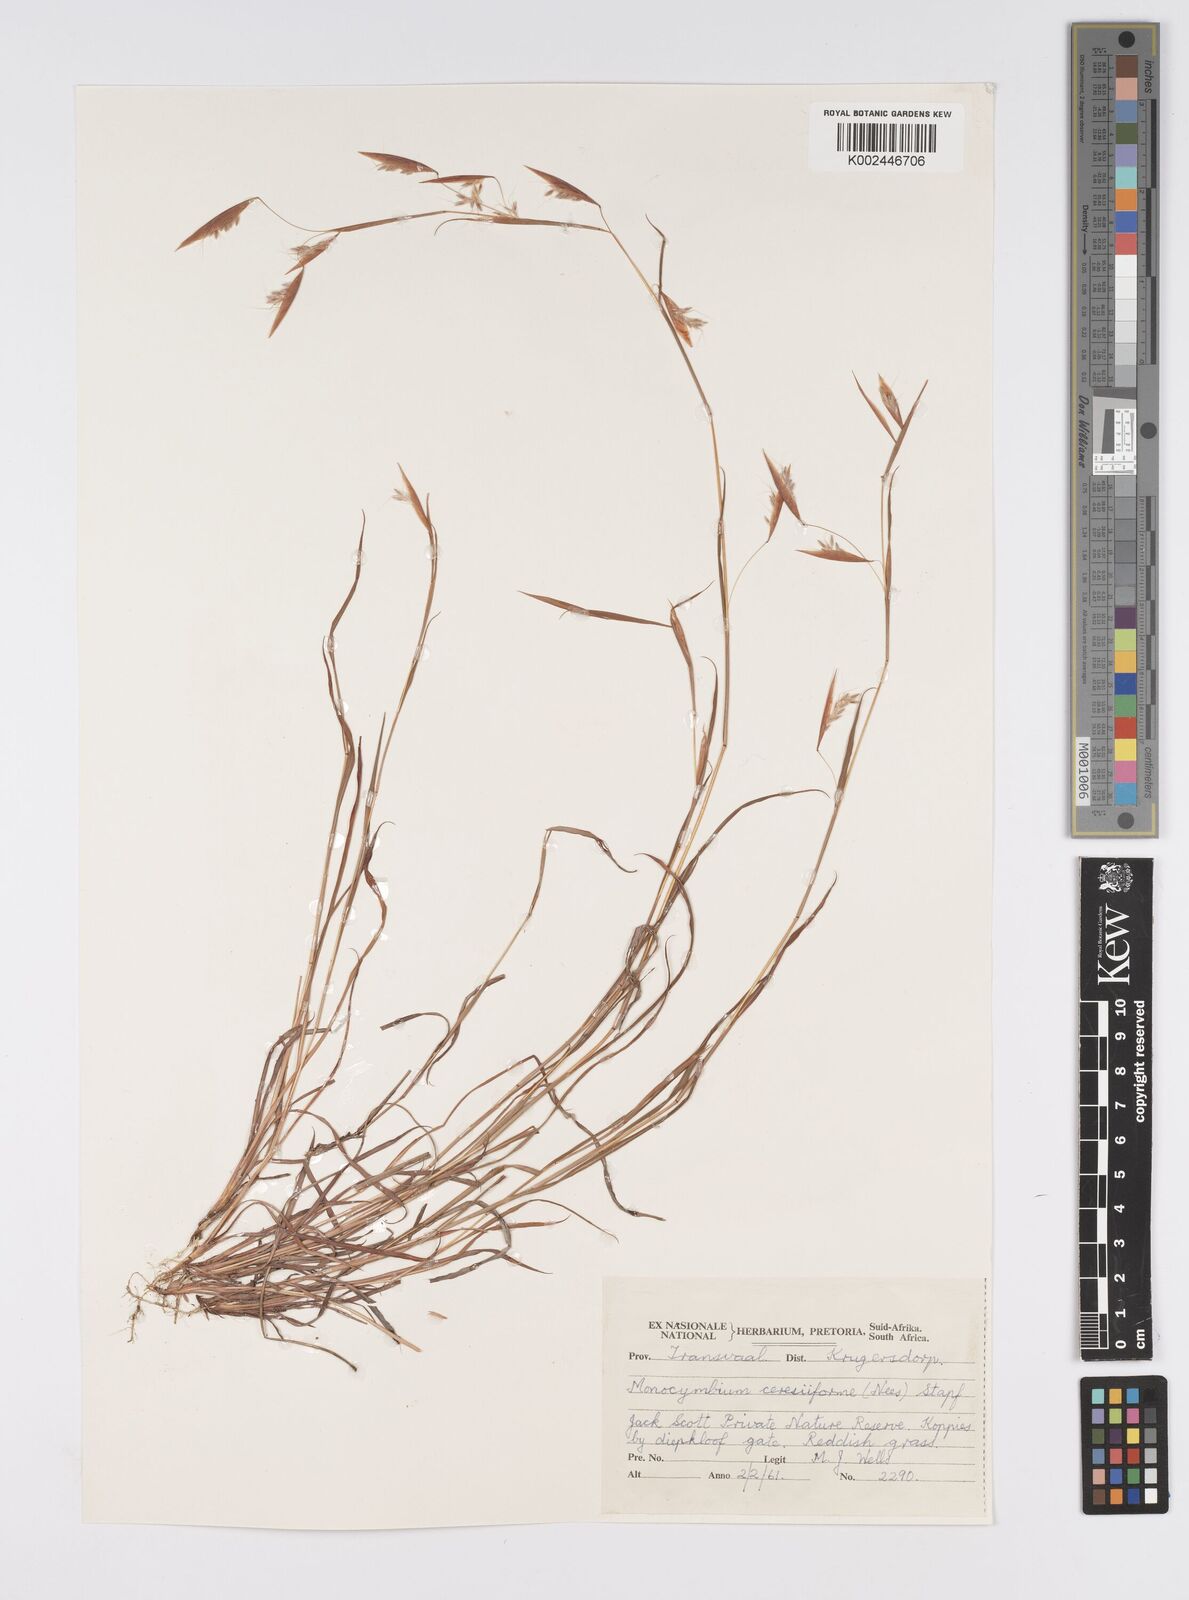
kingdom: Plantae
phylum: Tracheophyta
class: Liliopsida
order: Poales
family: Poaceae
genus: Monocymbium
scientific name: Monocymbium ceresiiforme
